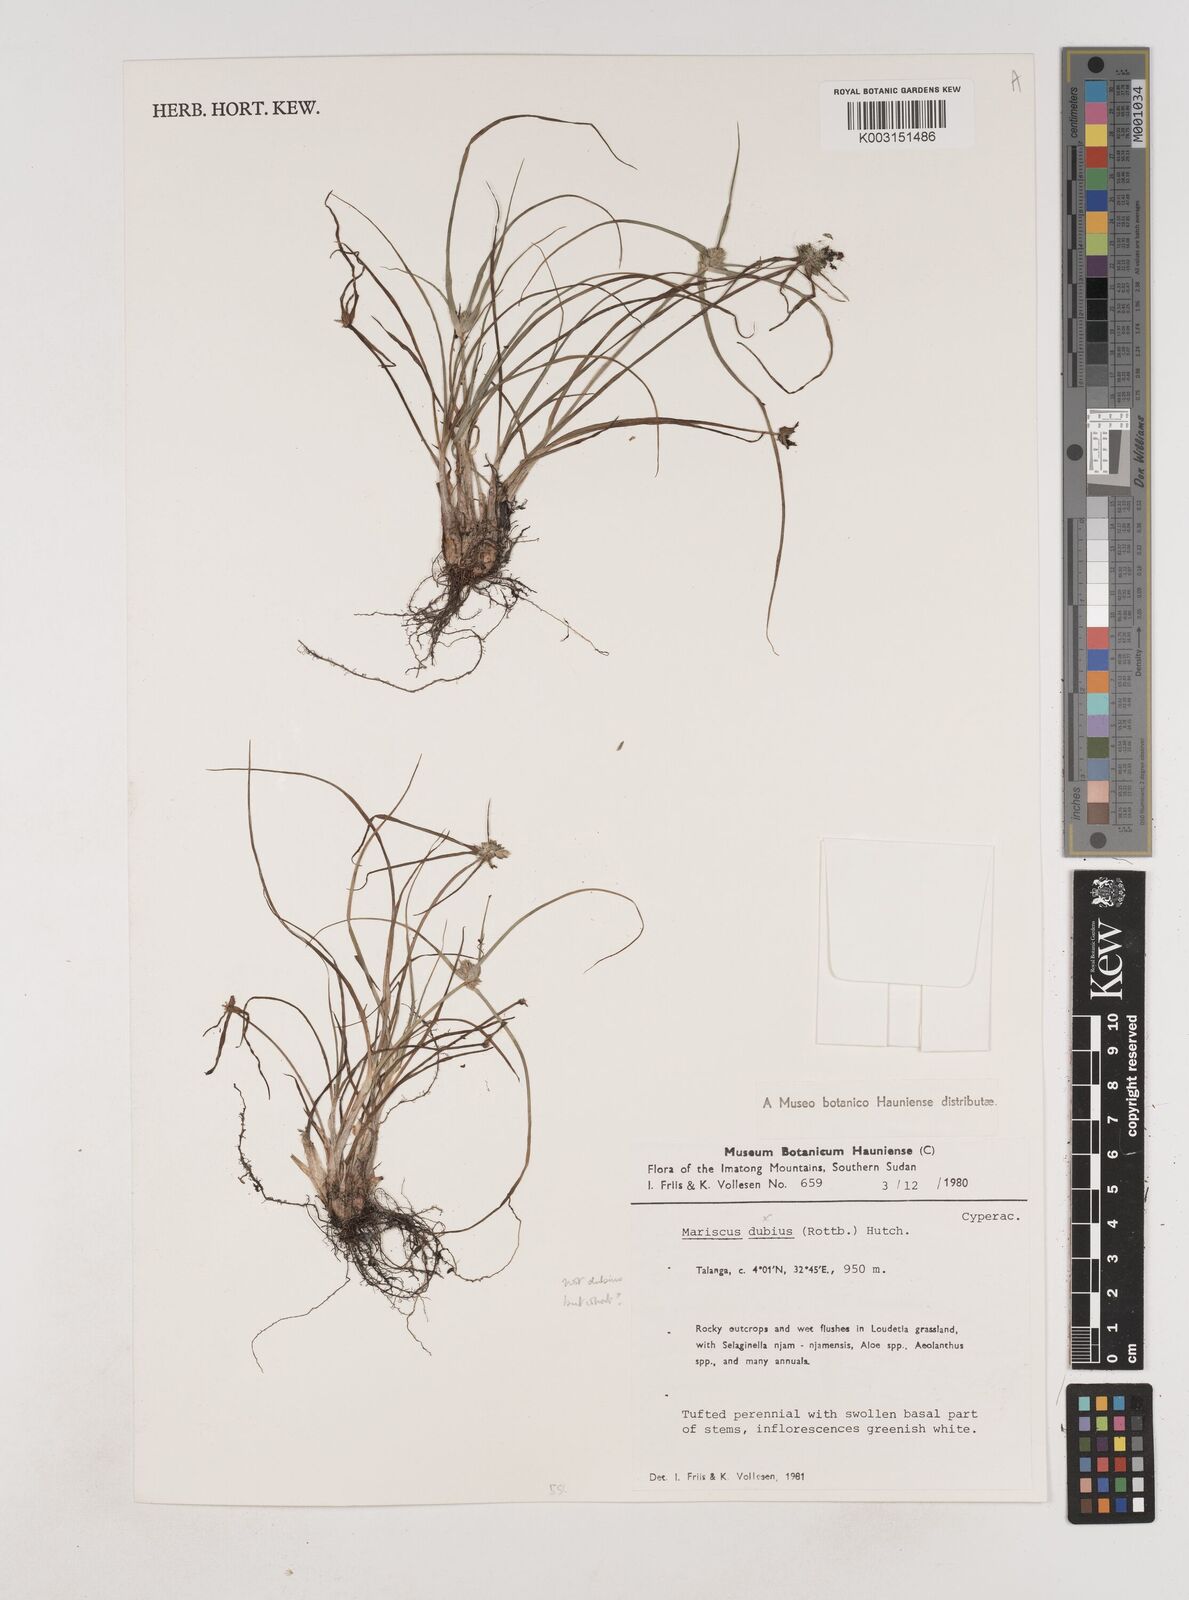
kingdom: Plantae
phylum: Tracheophyta
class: Liliopsida
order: Poales
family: Cyperaceae
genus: Cyperus
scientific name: Cyperus dubius
